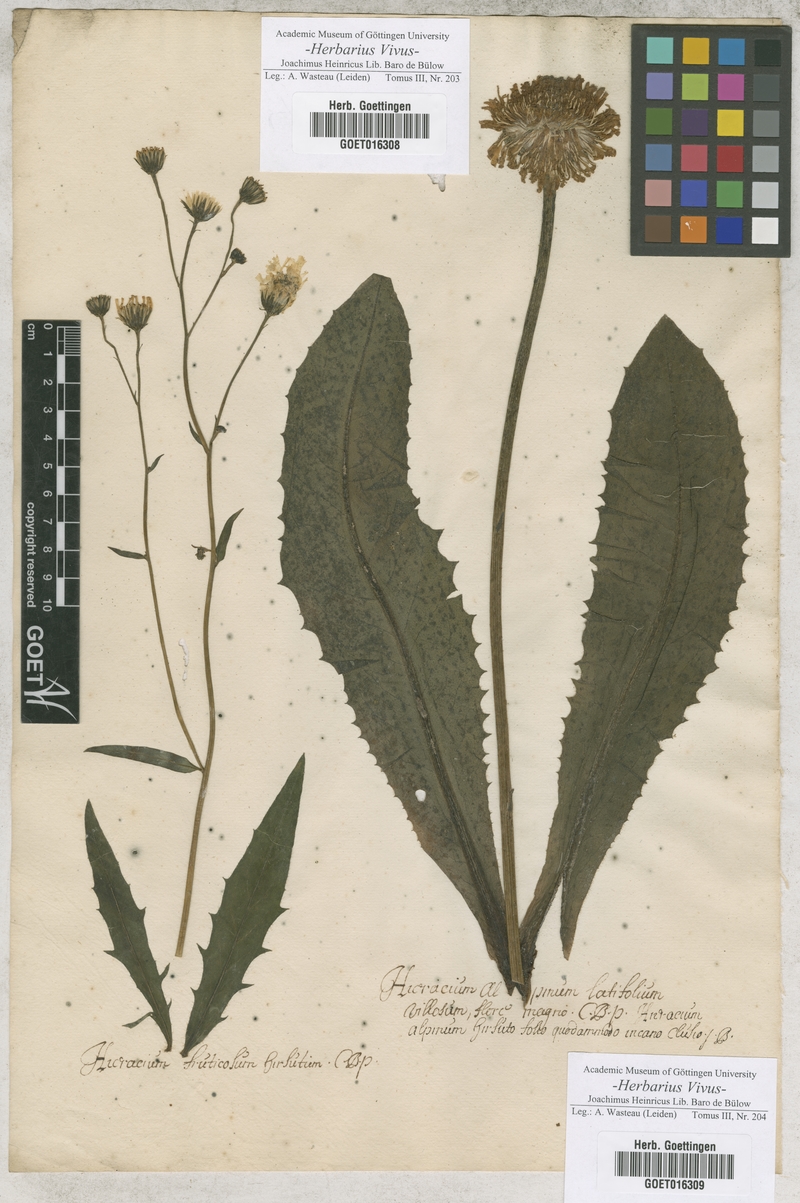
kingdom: Plantae
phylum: Tracheophyta
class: Magnoliopsida
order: Asterales
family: Asteraceae
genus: Hieracium
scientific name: Hieracium
